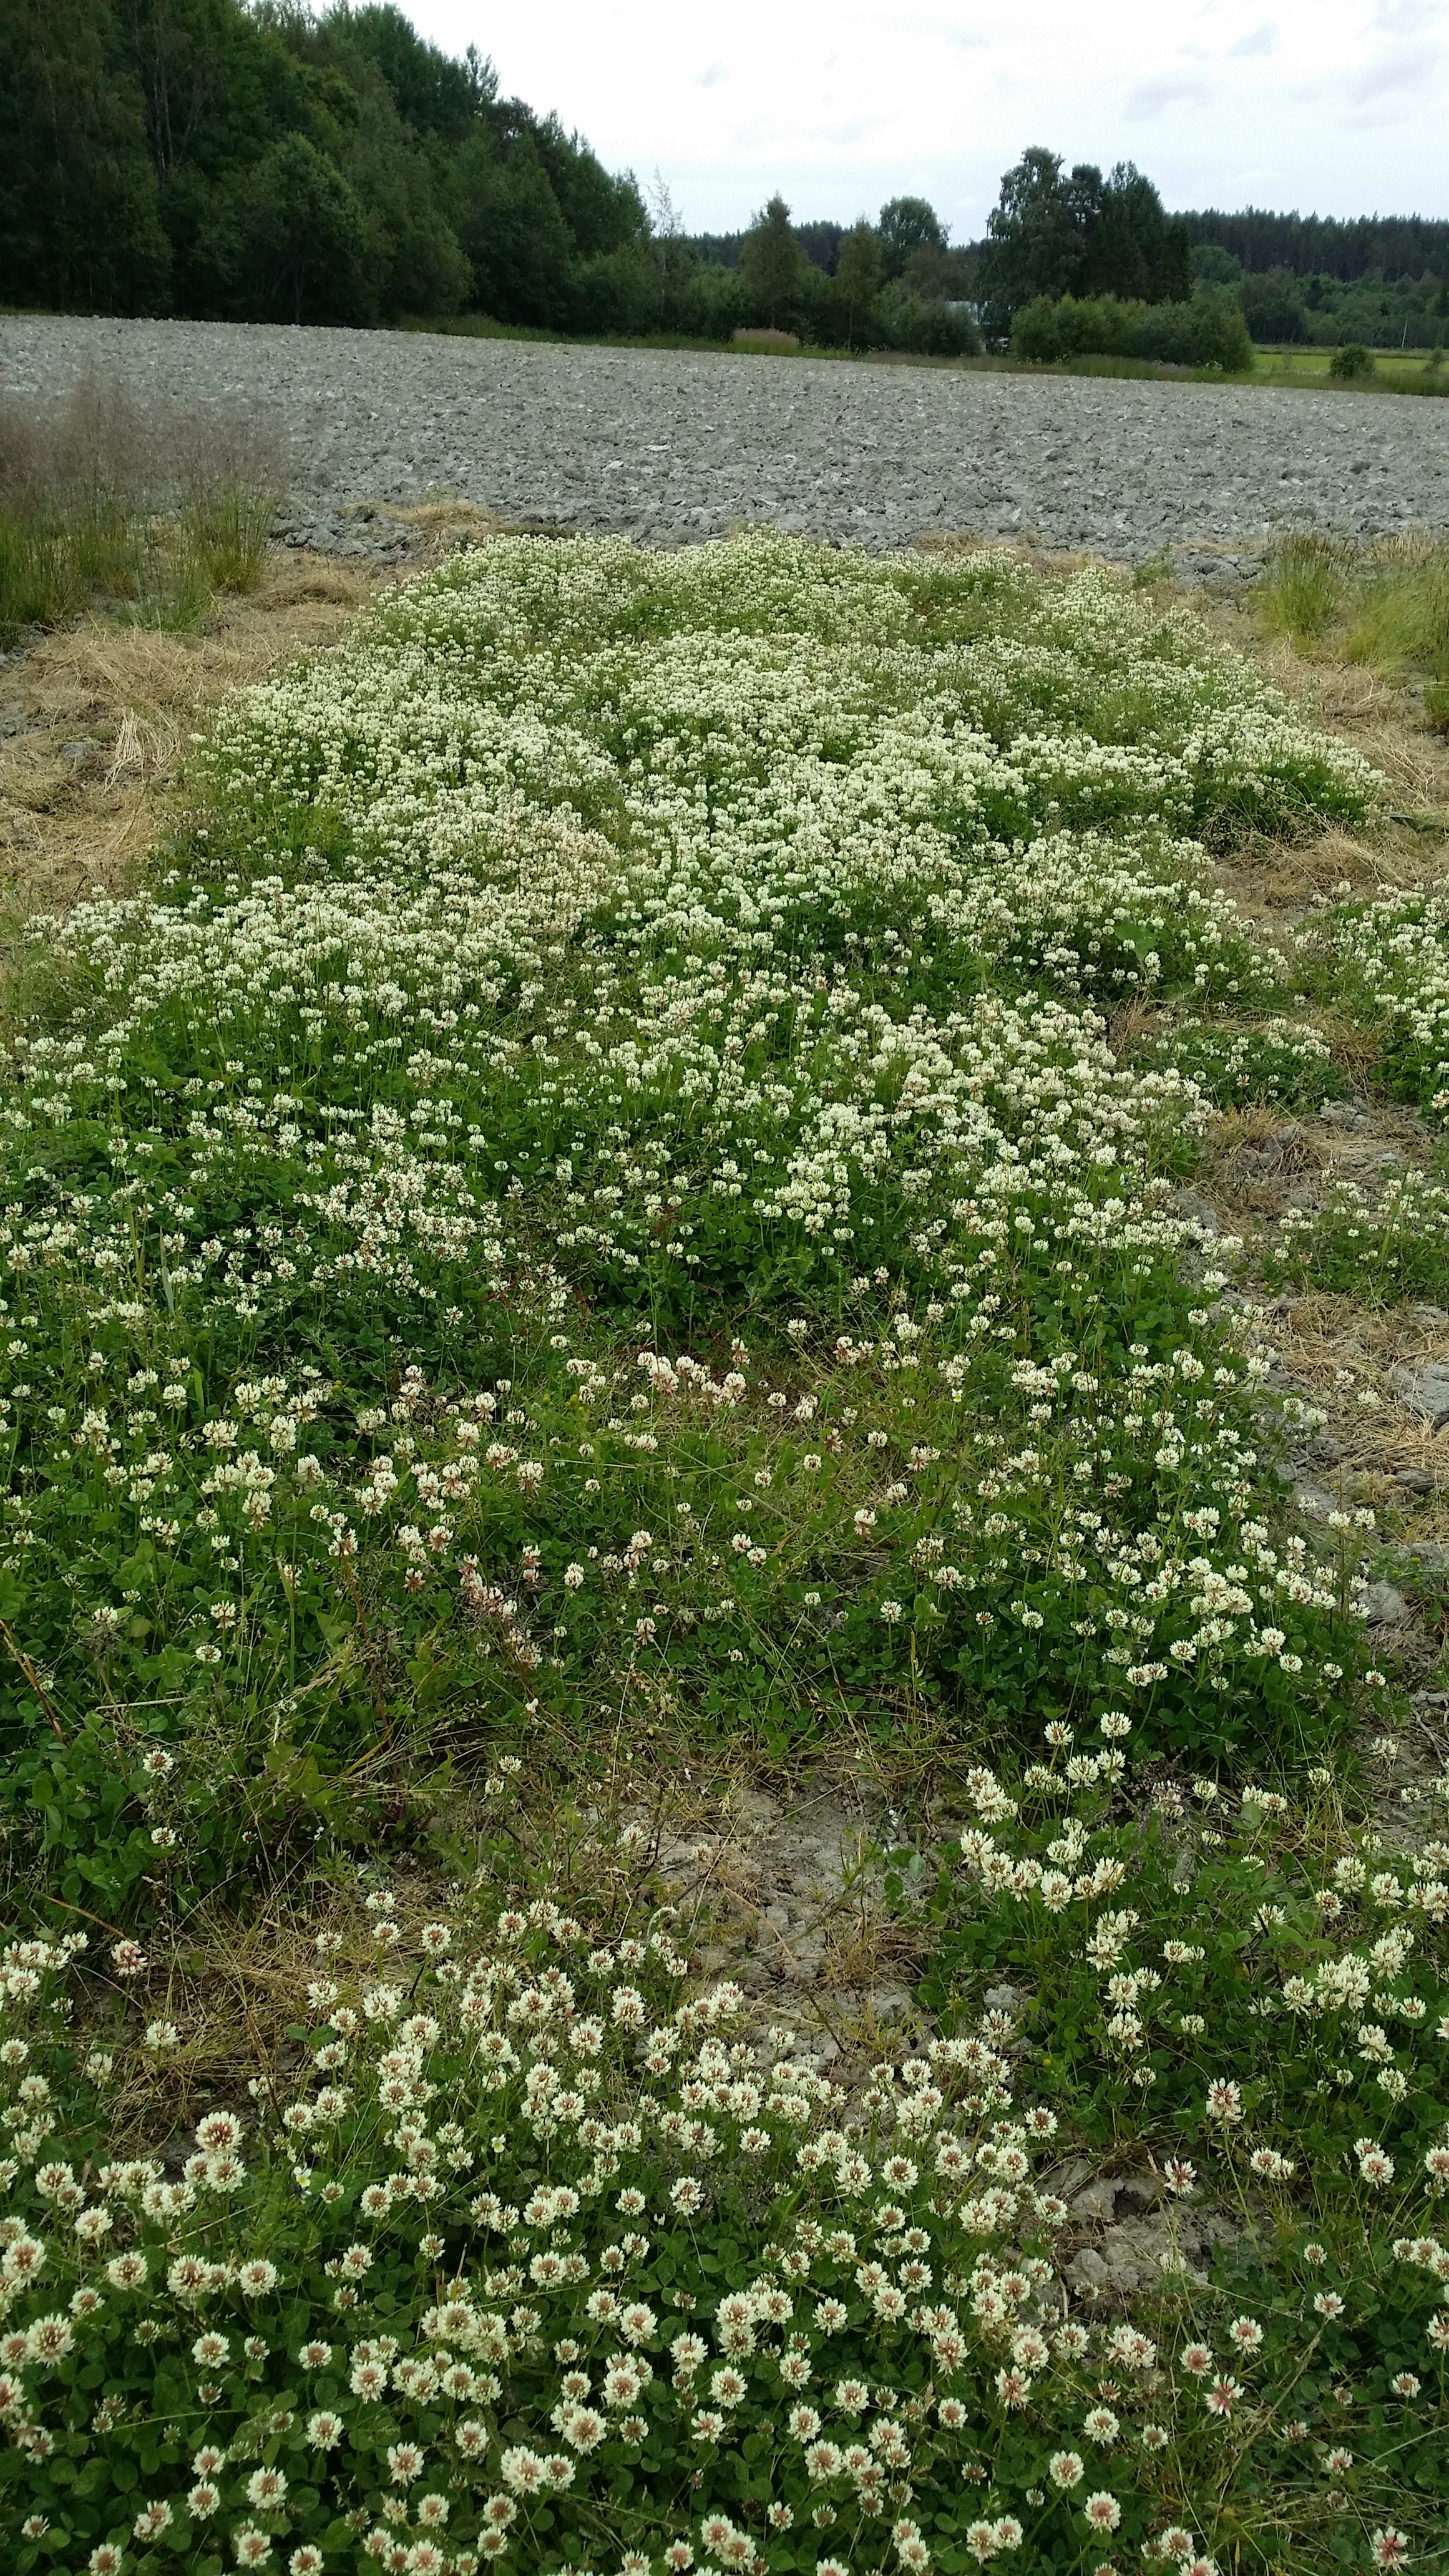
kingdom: Plantae
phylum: Tracheophyta
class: Magnoliopsida
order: Fabales
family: Fabaceae
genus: Trifolium
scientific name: Trifolium repens
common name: White clover
